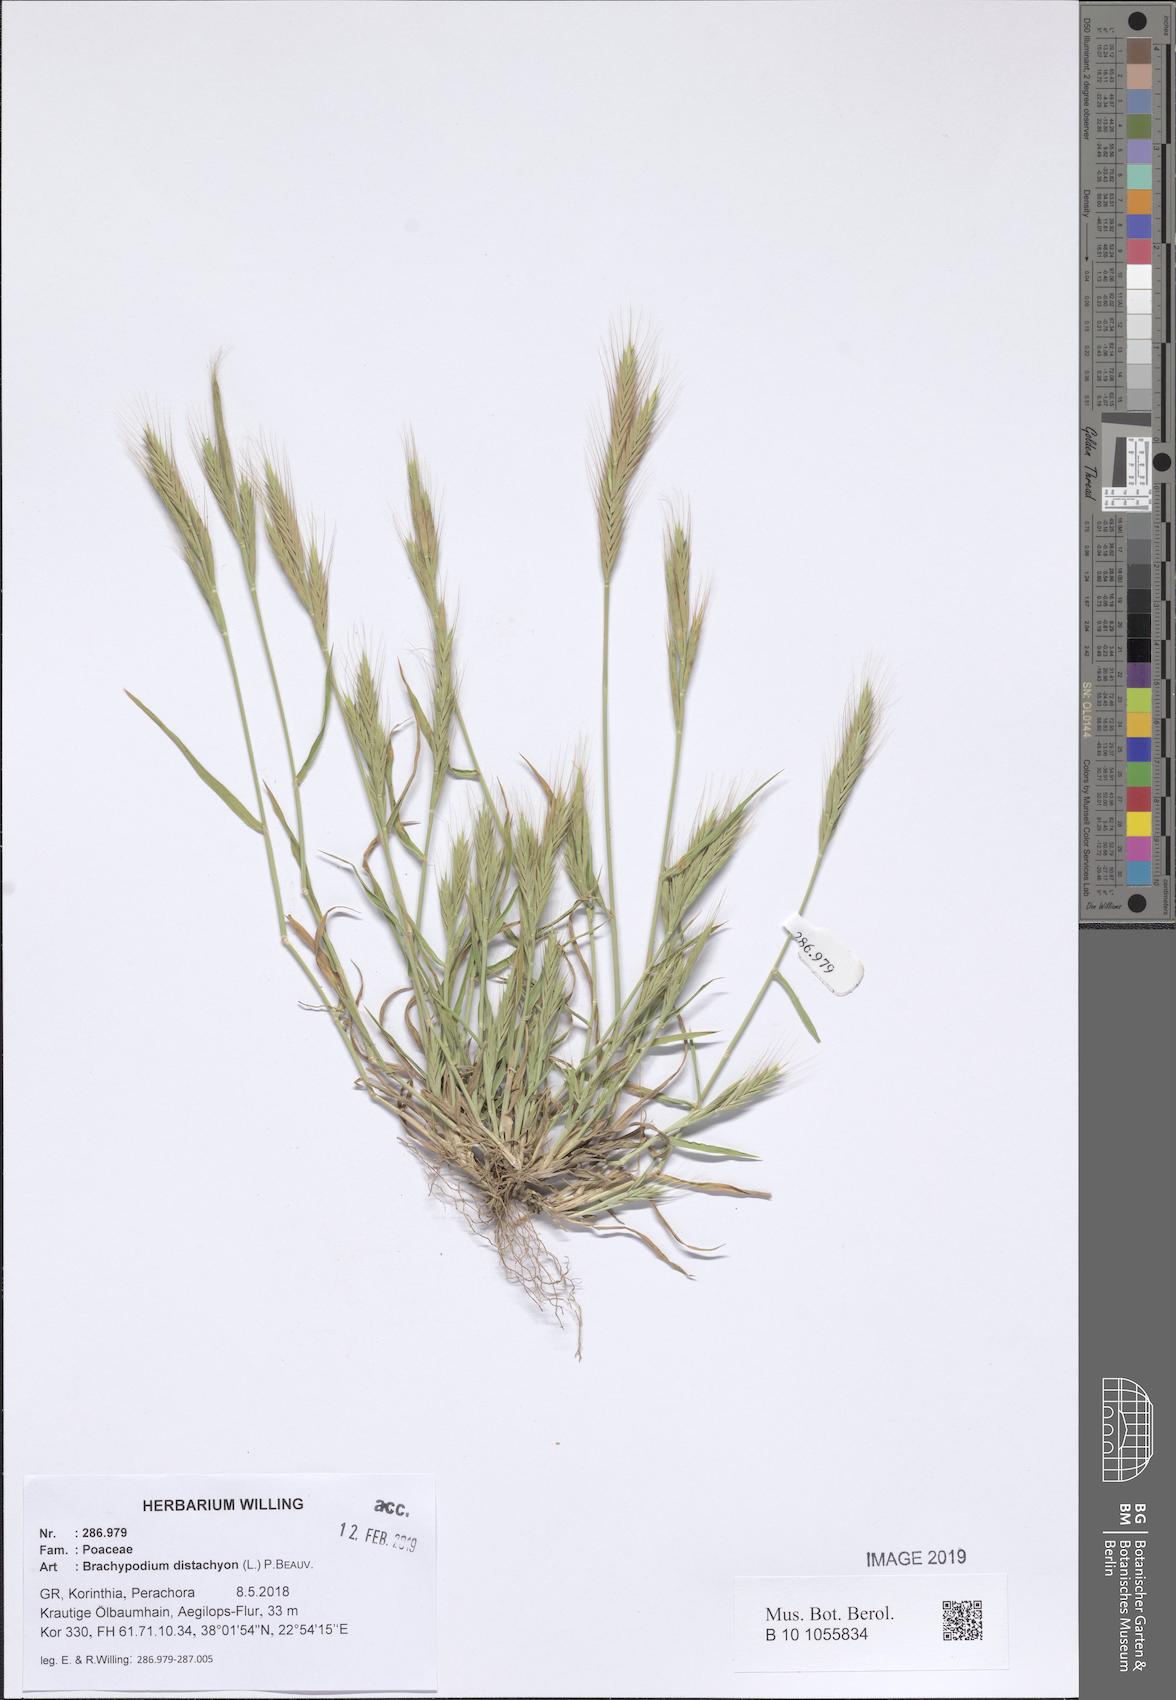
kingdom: Plantae
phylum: Tracheophyta
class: Liliopsida
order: Poales
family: Poaceae
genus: Brachypodium
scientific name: Brachypodium distachyon
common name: Stiff brome
